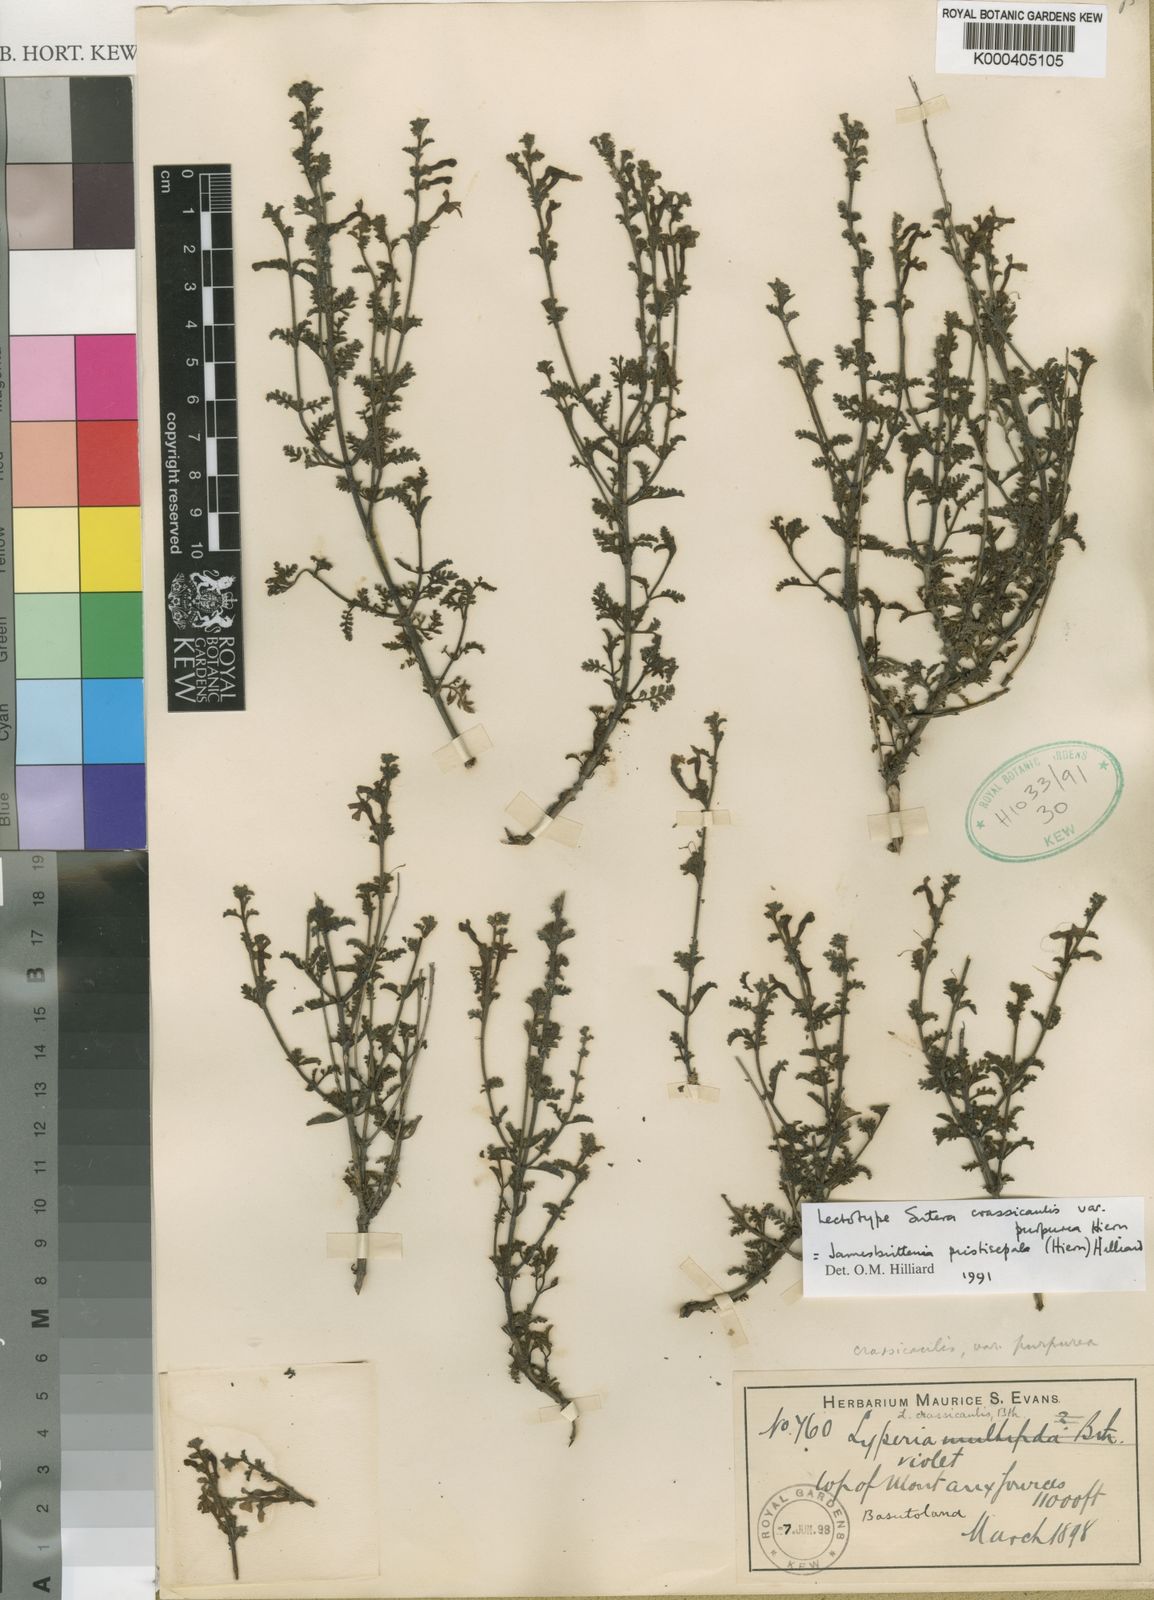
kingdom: Plantae
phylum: Tracheophyta
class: Magnoliopsida
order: Lamiales
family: Scrophulariaceae
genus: Jamesbrittenia
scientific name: Jamesbrittenia pristisepala
